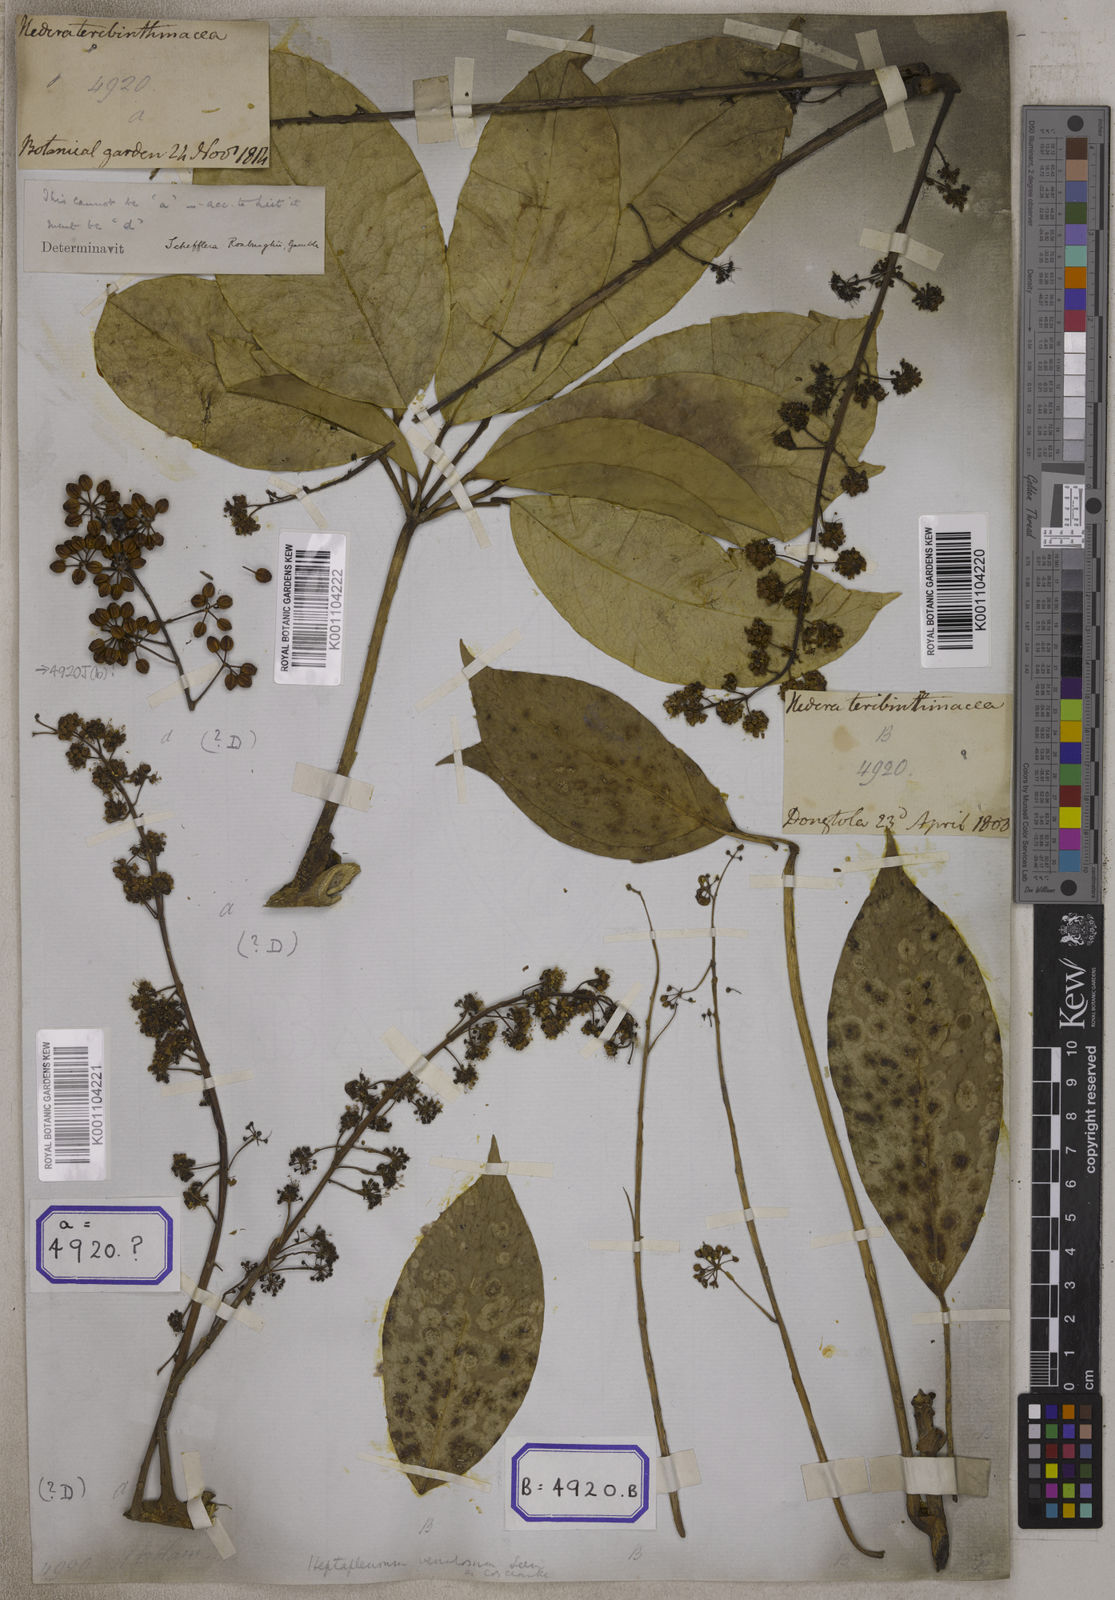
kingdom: Plantae
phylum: Tracheophyta
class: Magnoliopsida
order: Apiales
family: Araliaceae
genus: Hedera
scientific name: Hedera
